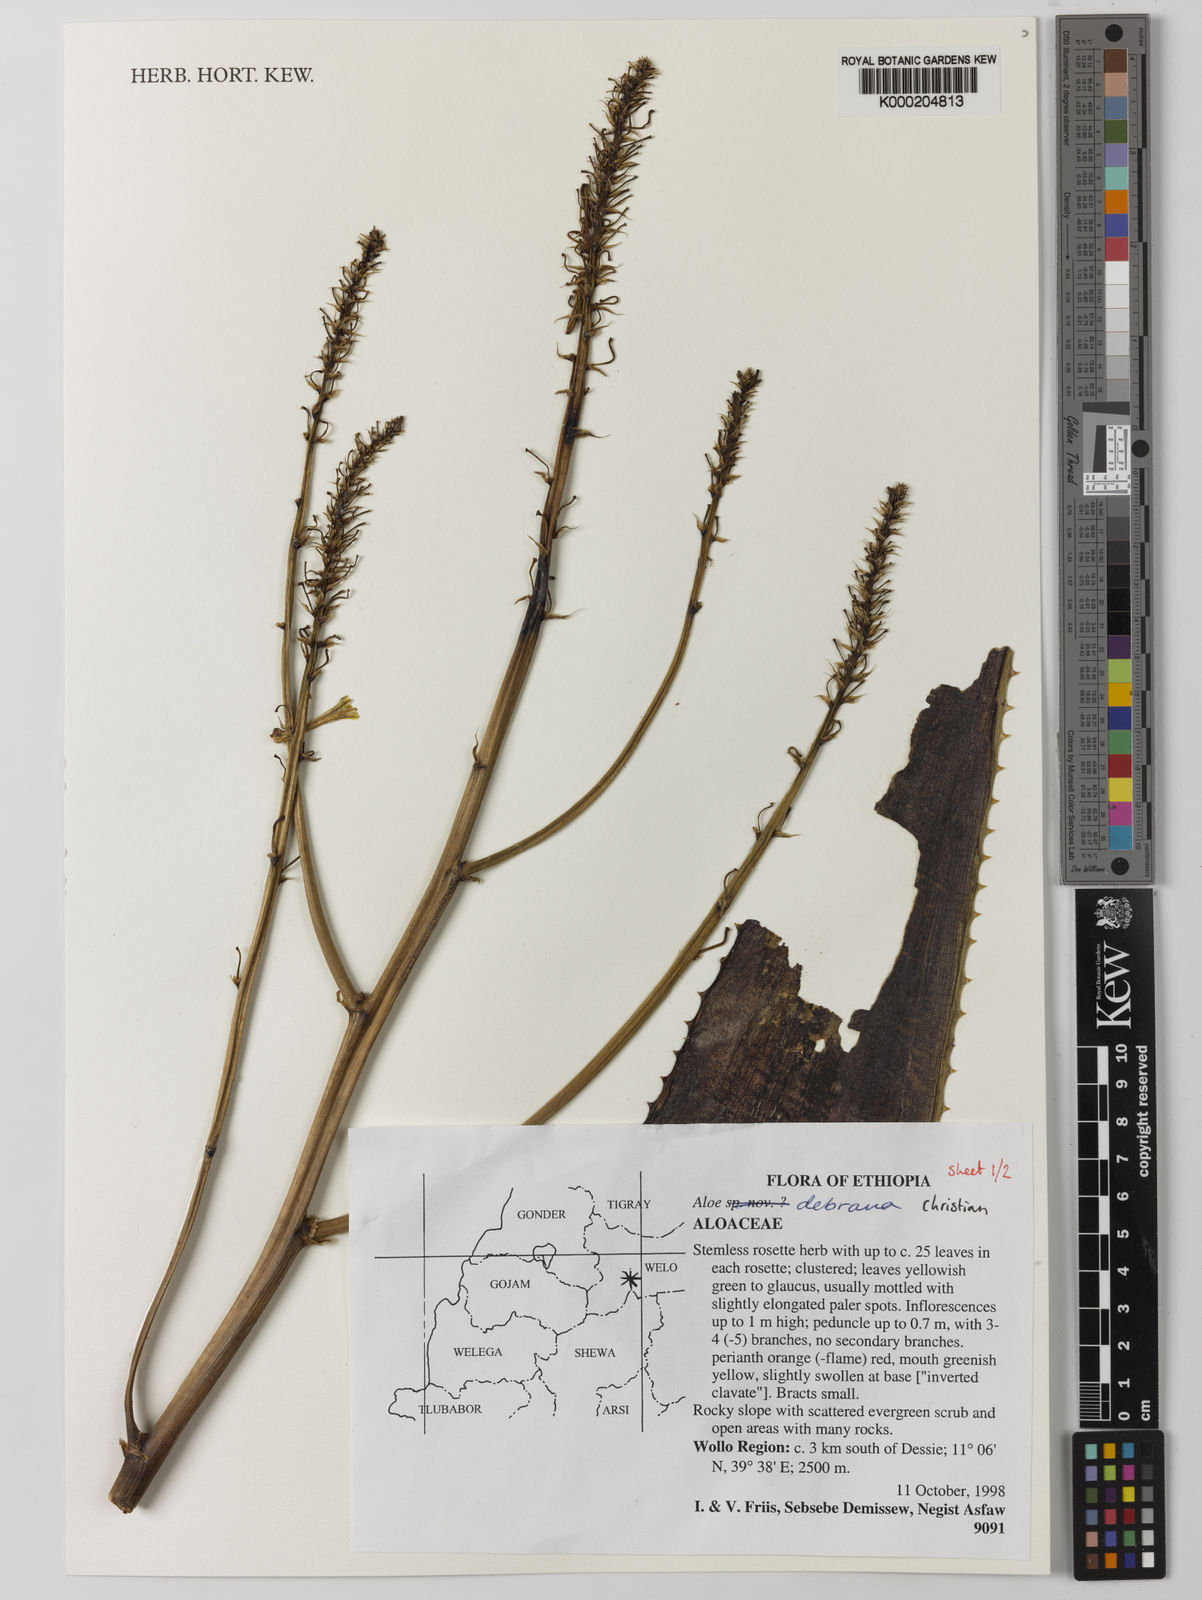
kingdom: Plantae
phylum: Tracheophyta
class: Liliopsida
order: Asparagales
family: Asphodelaceae
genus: Aloe
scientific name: Aloe debrana
